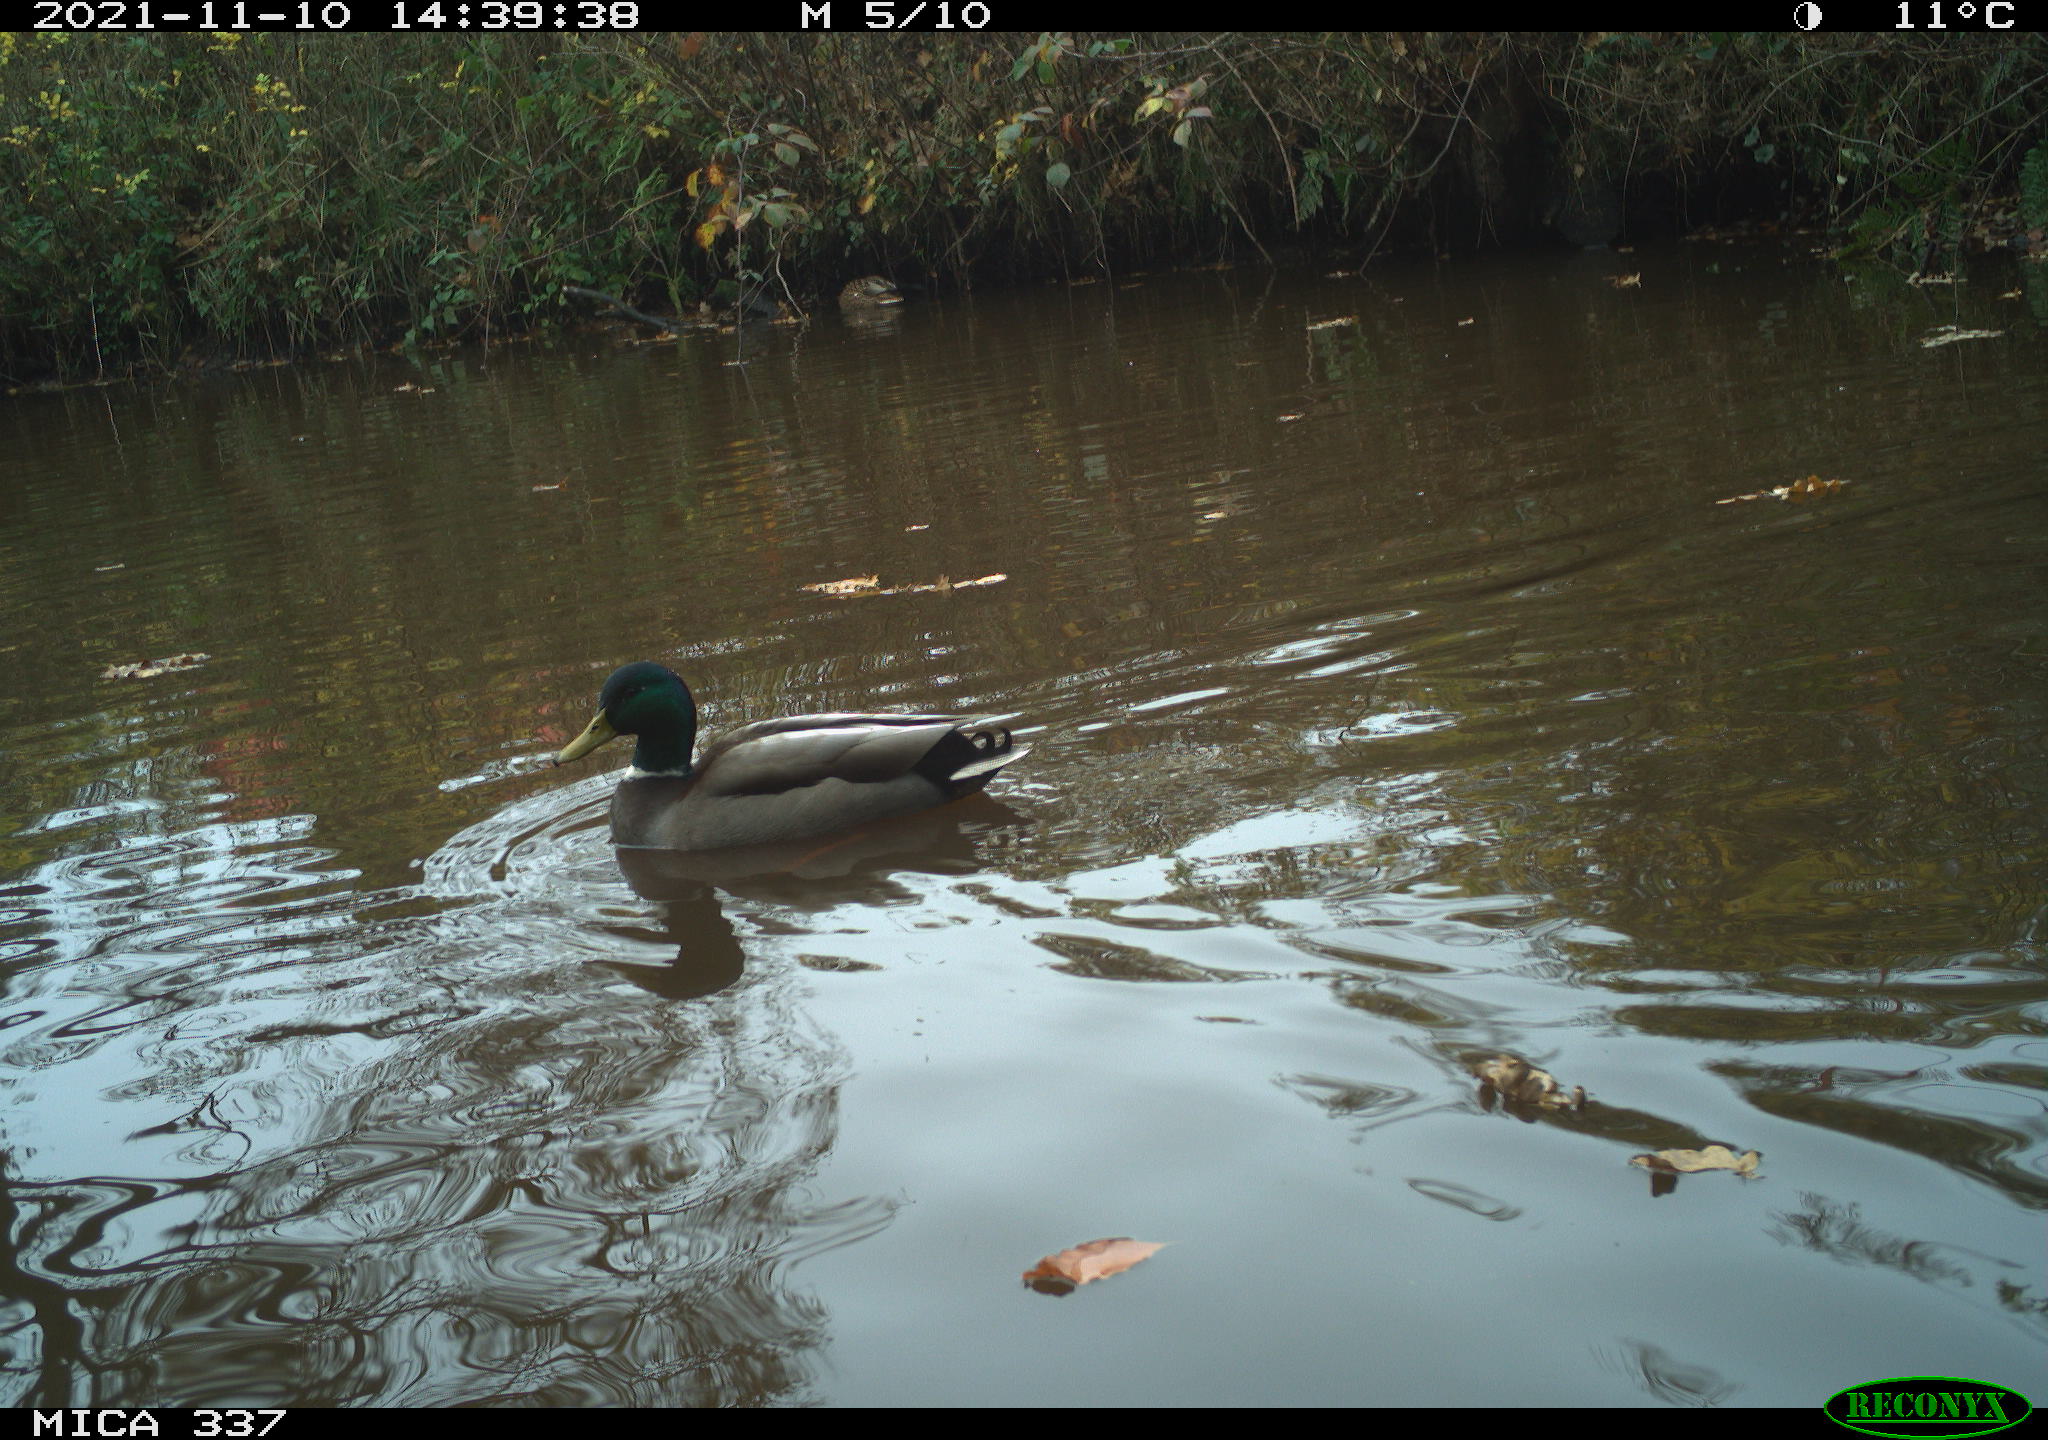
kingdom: Animalia
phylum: Chordata
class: Aves
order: Anseriformes
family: Anatidae
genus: Anas
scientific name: Anas platyrhynchos
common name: Mallard
